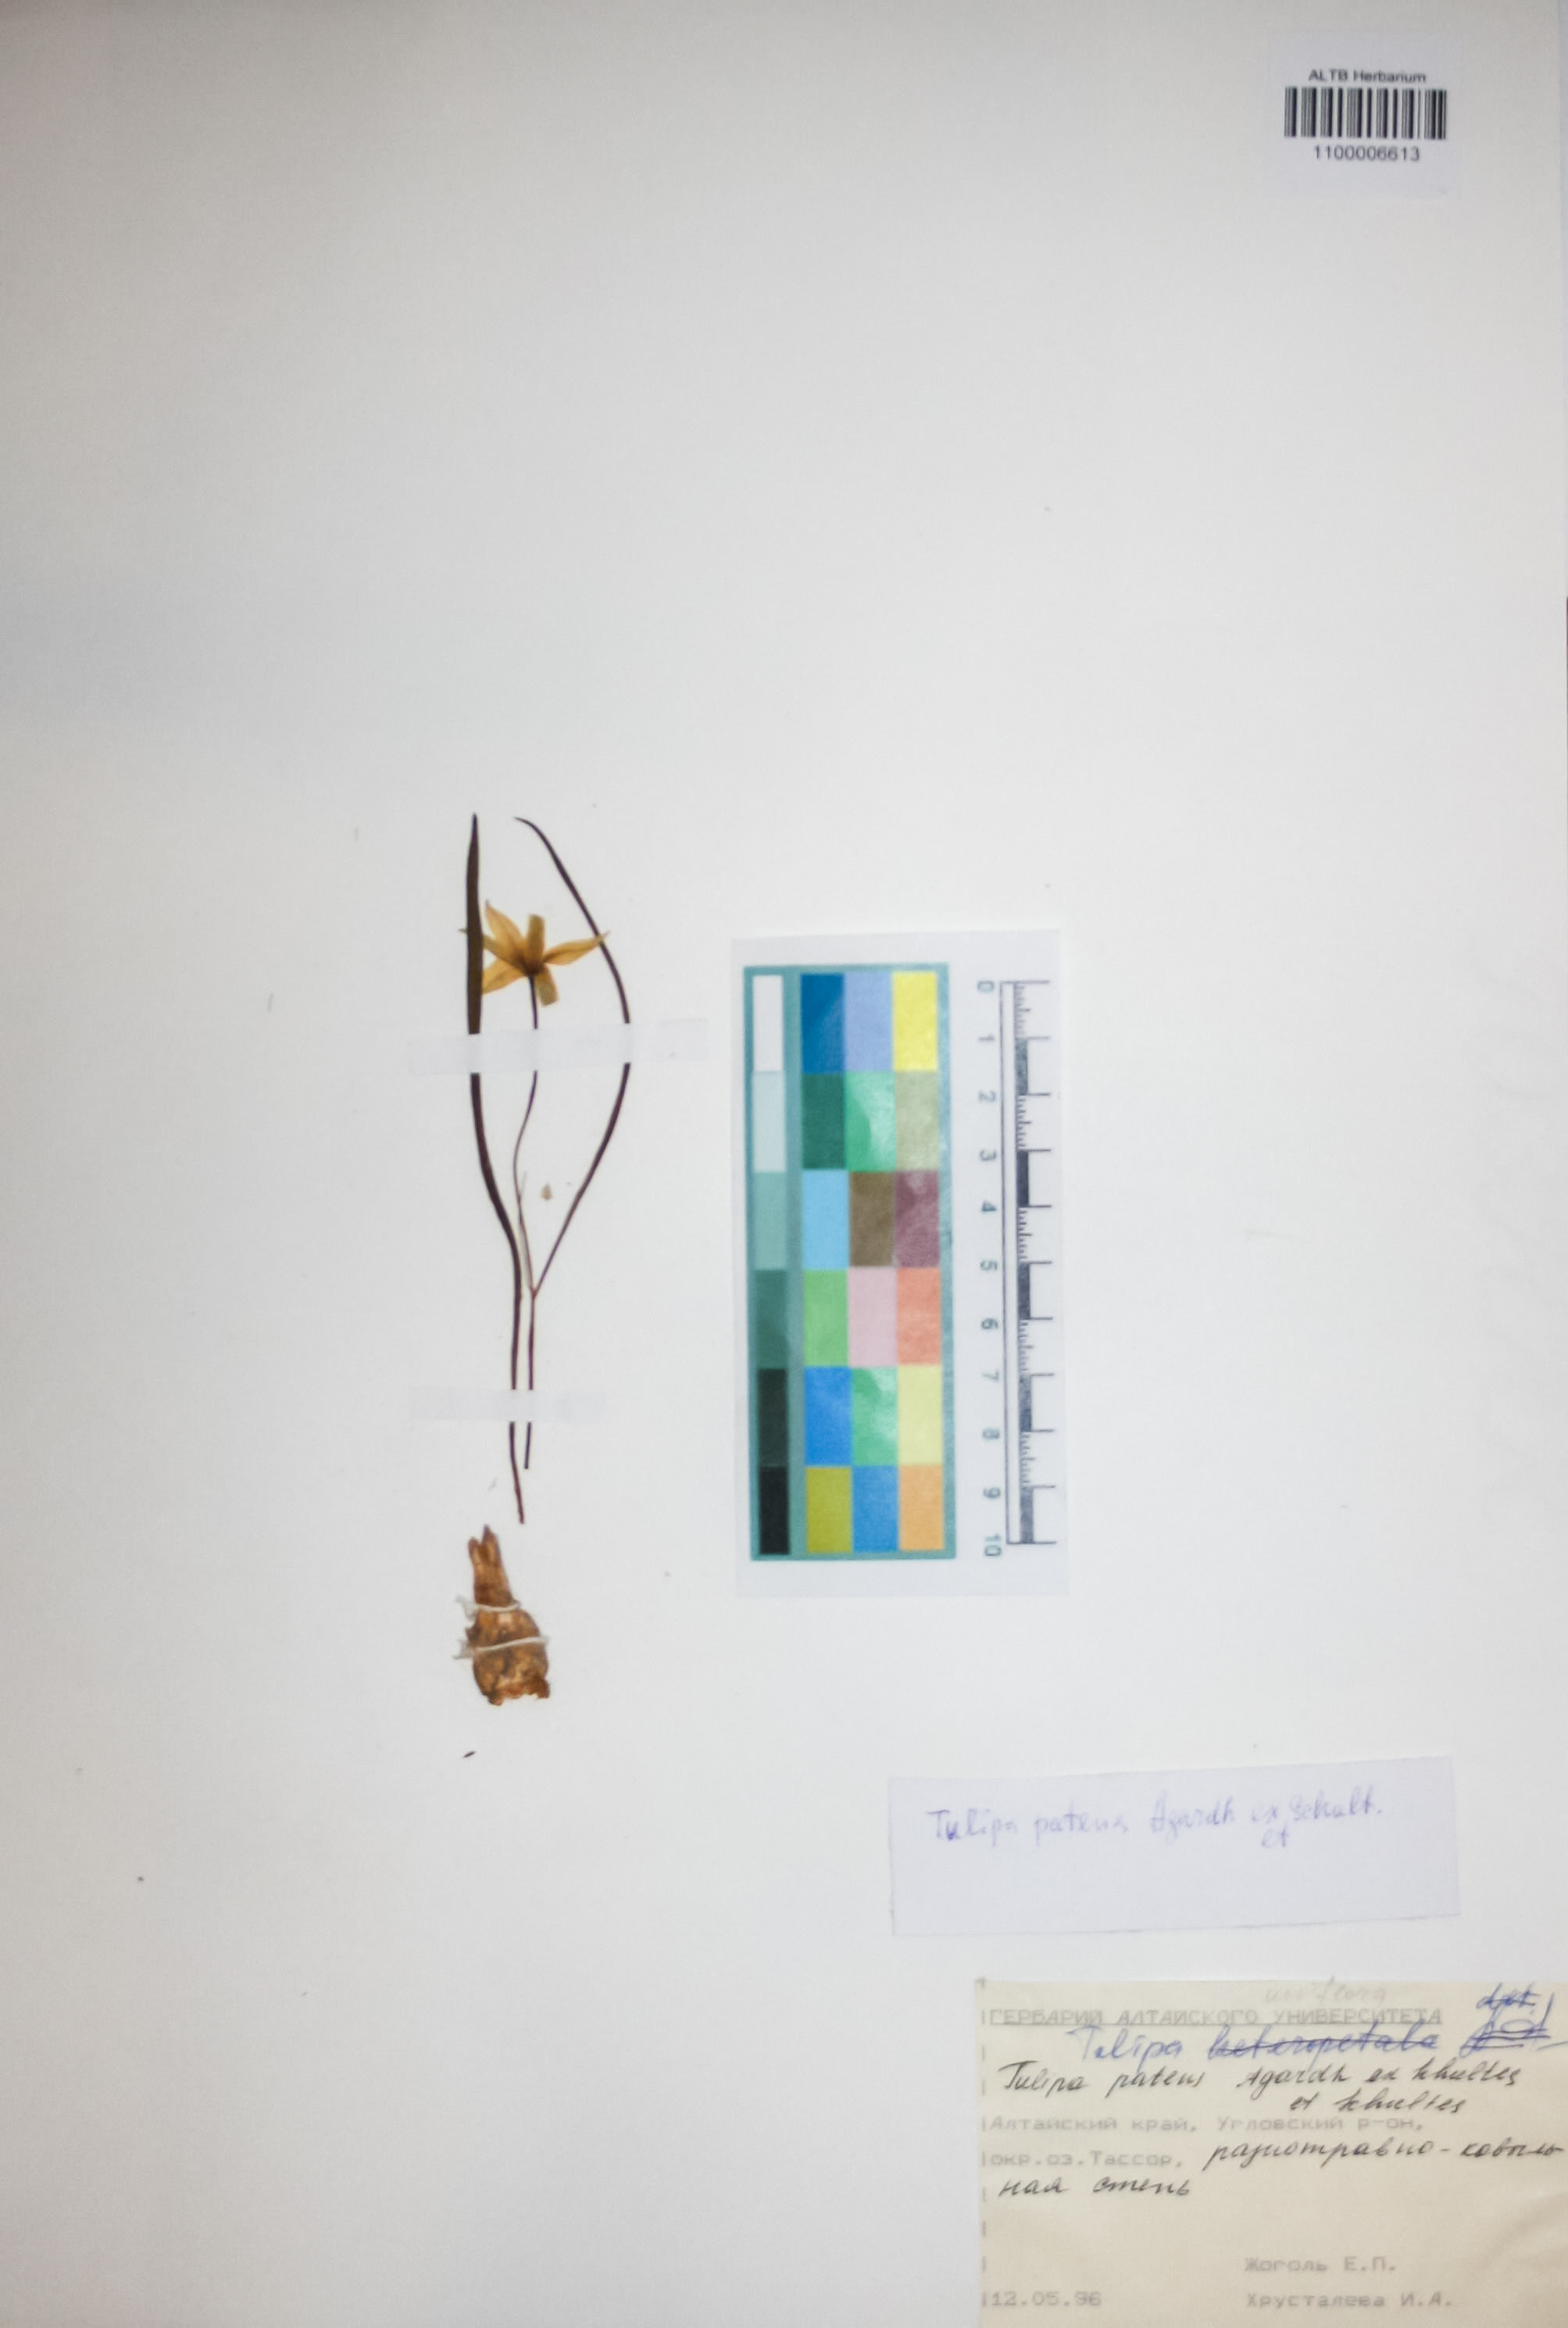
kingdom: Plantae
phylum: Tracheophyta
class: Liliopsida
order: Liliales
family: Liliaceae
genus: Tulipa
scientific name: Tulipa patens
